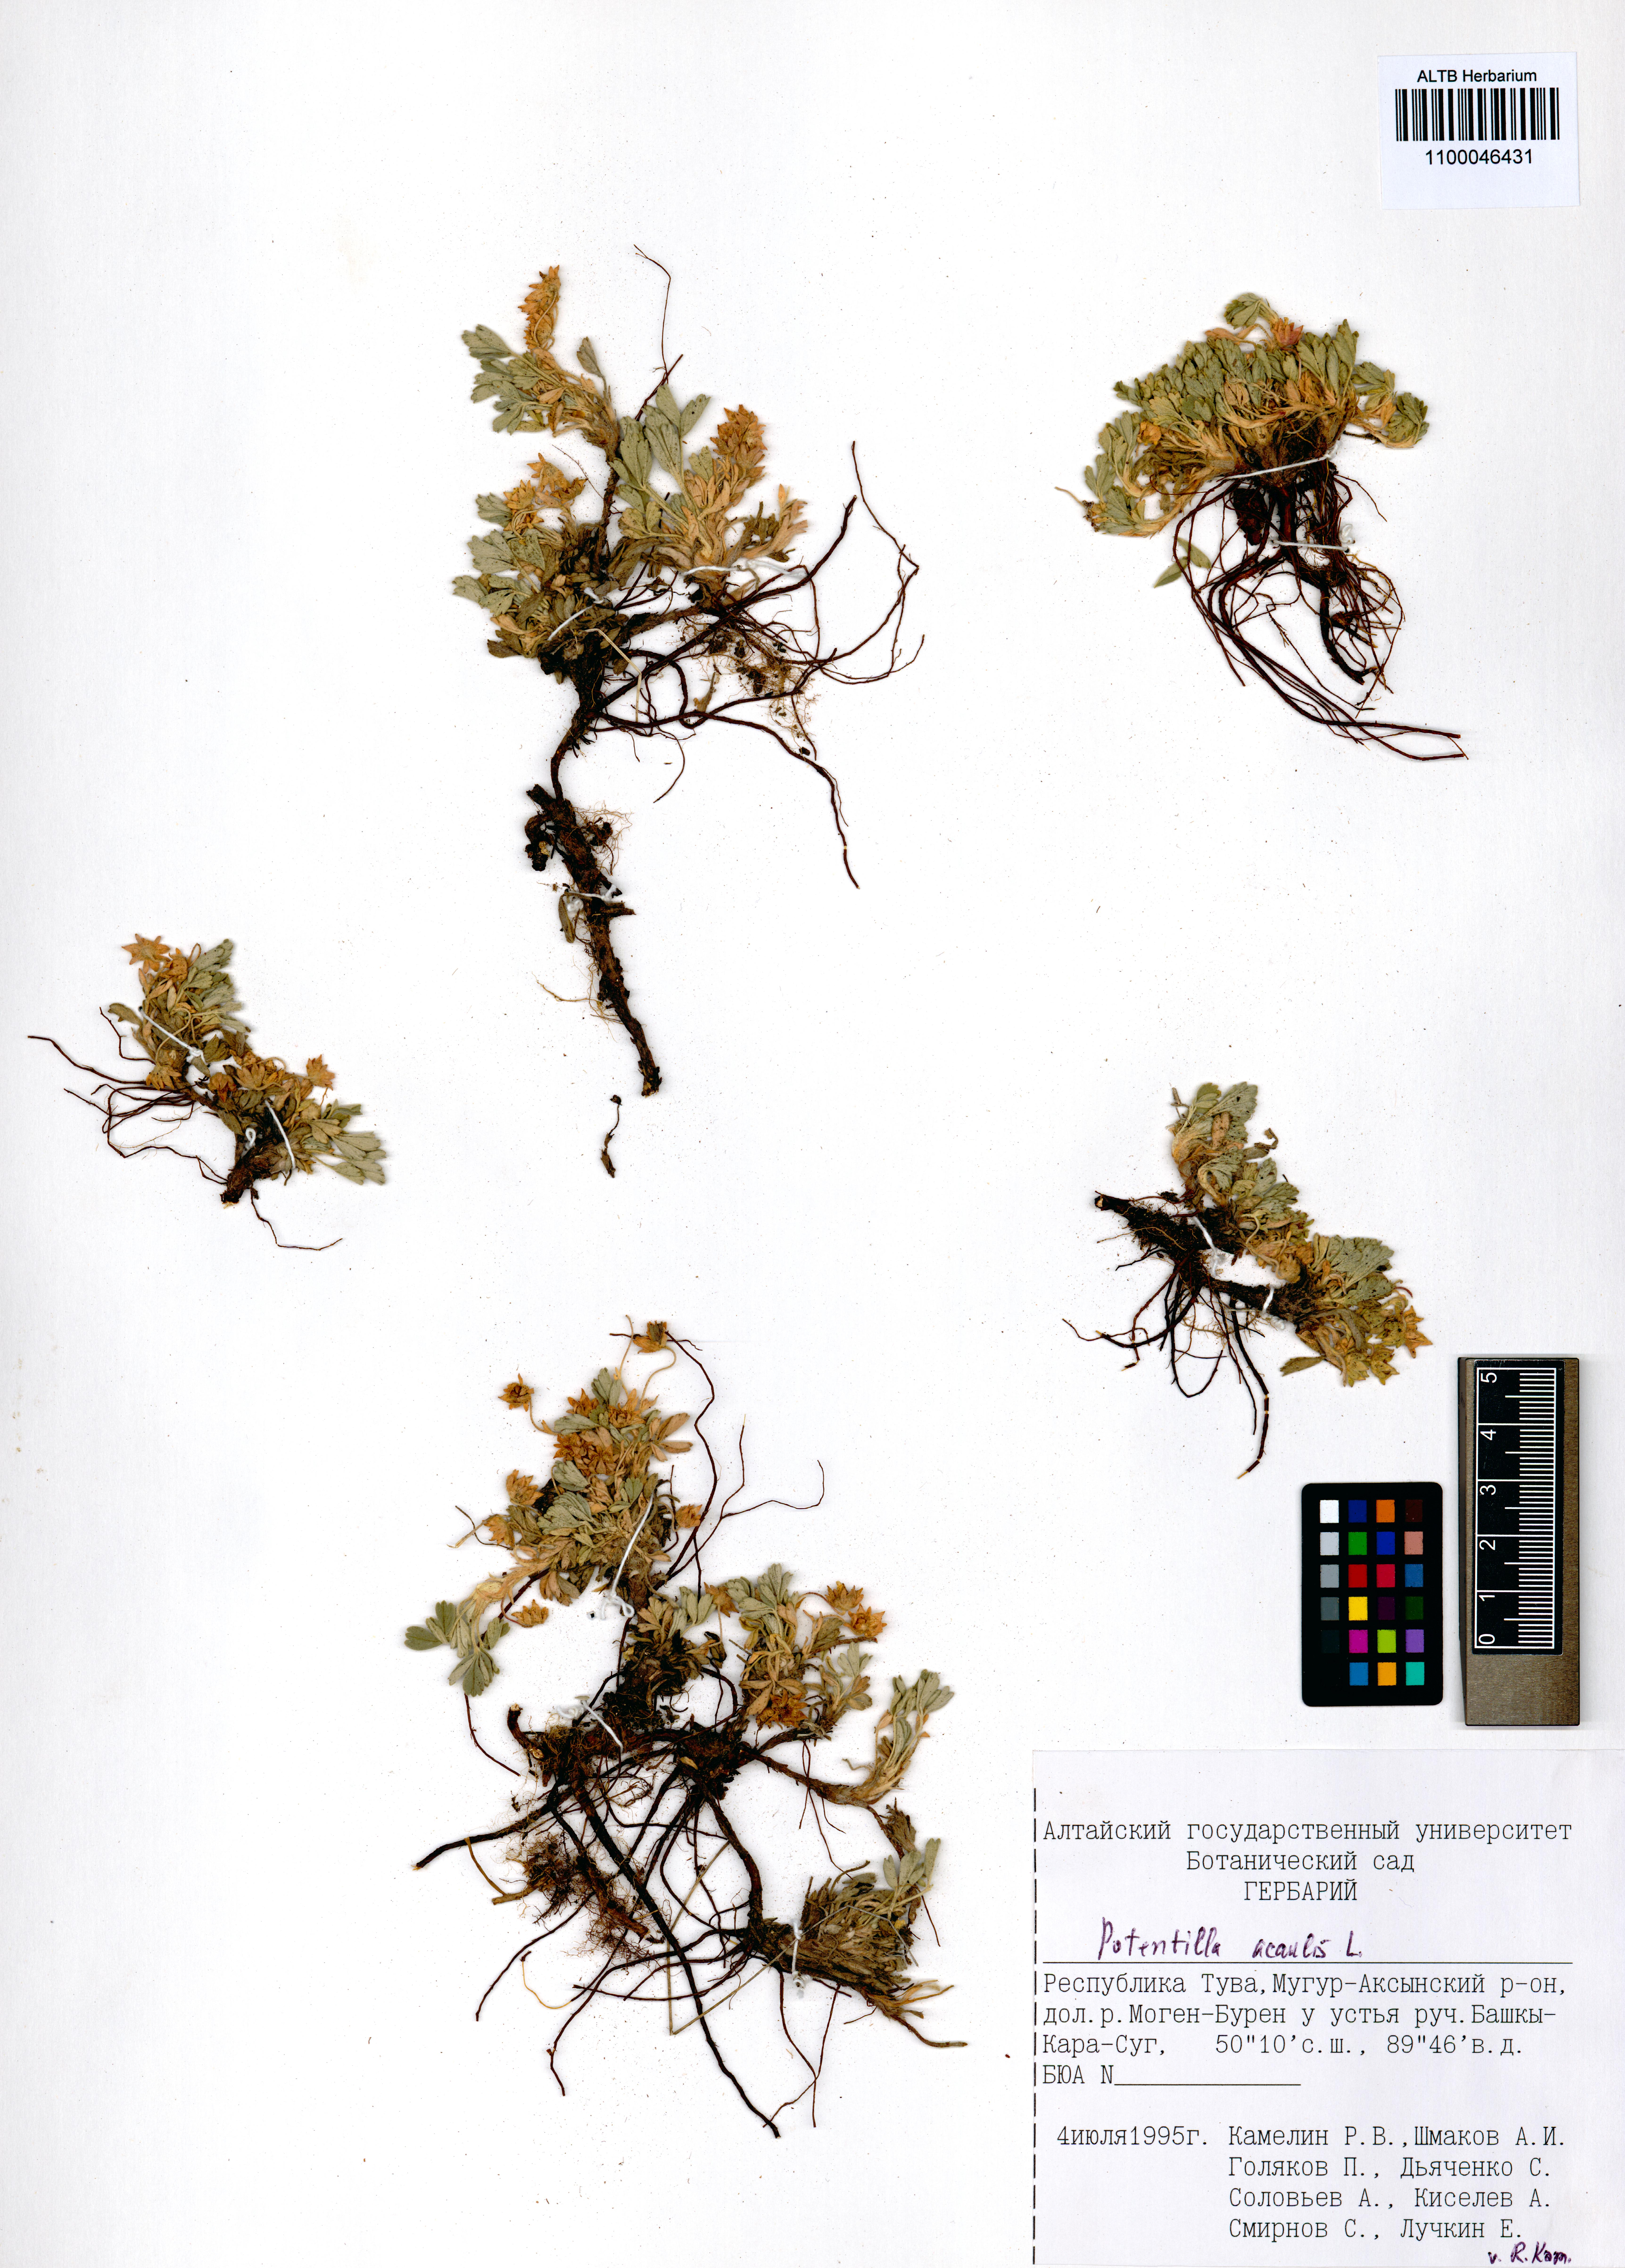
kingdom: Plantae
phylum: Tracheophyta
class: Magnoliopsida
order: Rosales
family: Rosaceae
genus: Potentilla
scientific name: Potentilla acaulis
